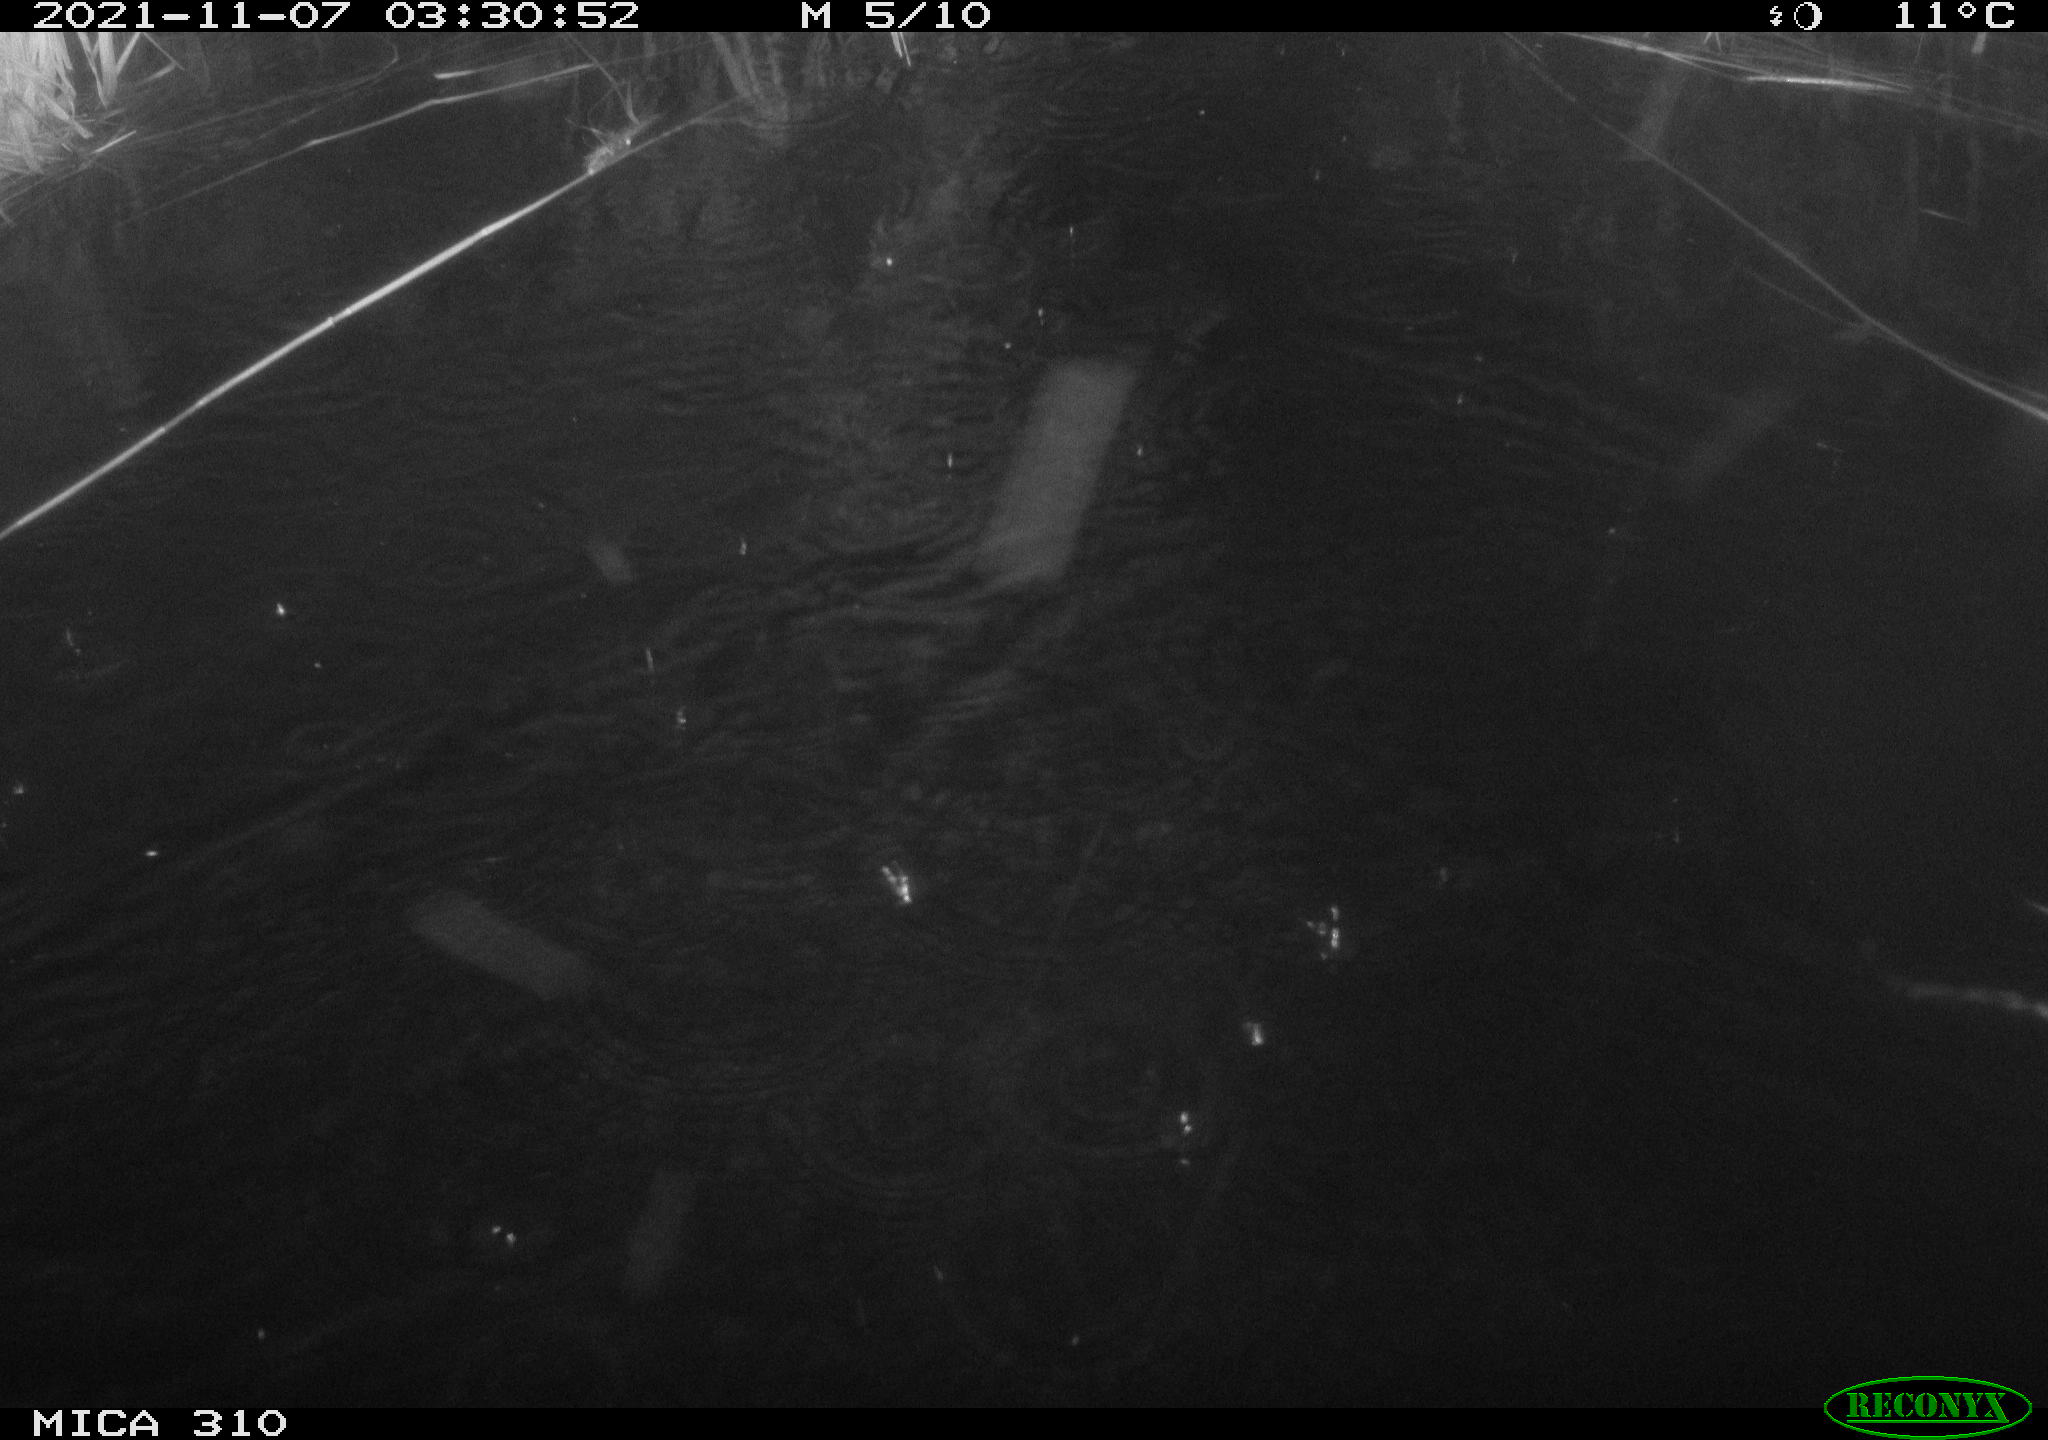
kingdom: Animalia
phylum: Chordata
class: Mammalia
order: Rodentia
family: Muridae
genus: Rattus
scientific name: Rattus norvegicus
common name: Brown rat
